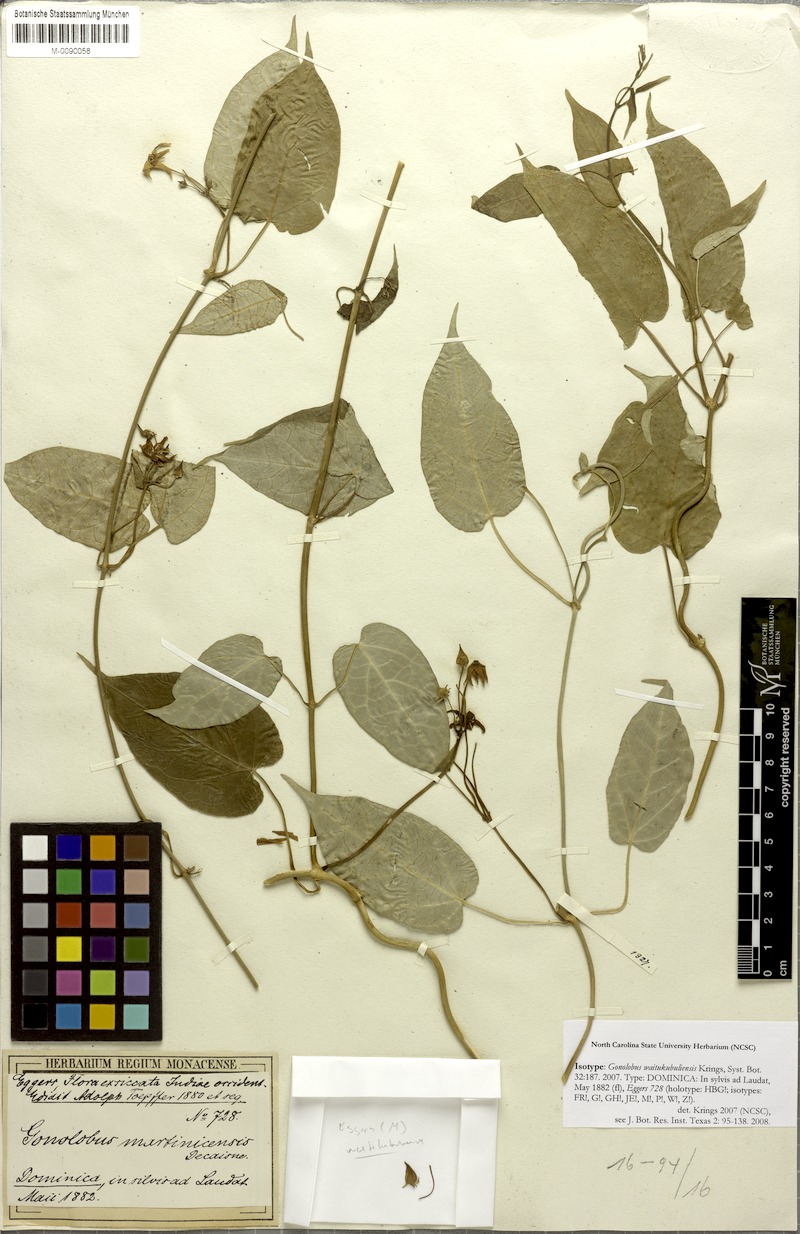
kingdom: Plantae
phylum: Tracheophyta
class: Magnoliopsida
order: Gentianales
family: Apocynaceae
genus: Gonolobus
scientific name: Gonolobus waitukubuliensis
